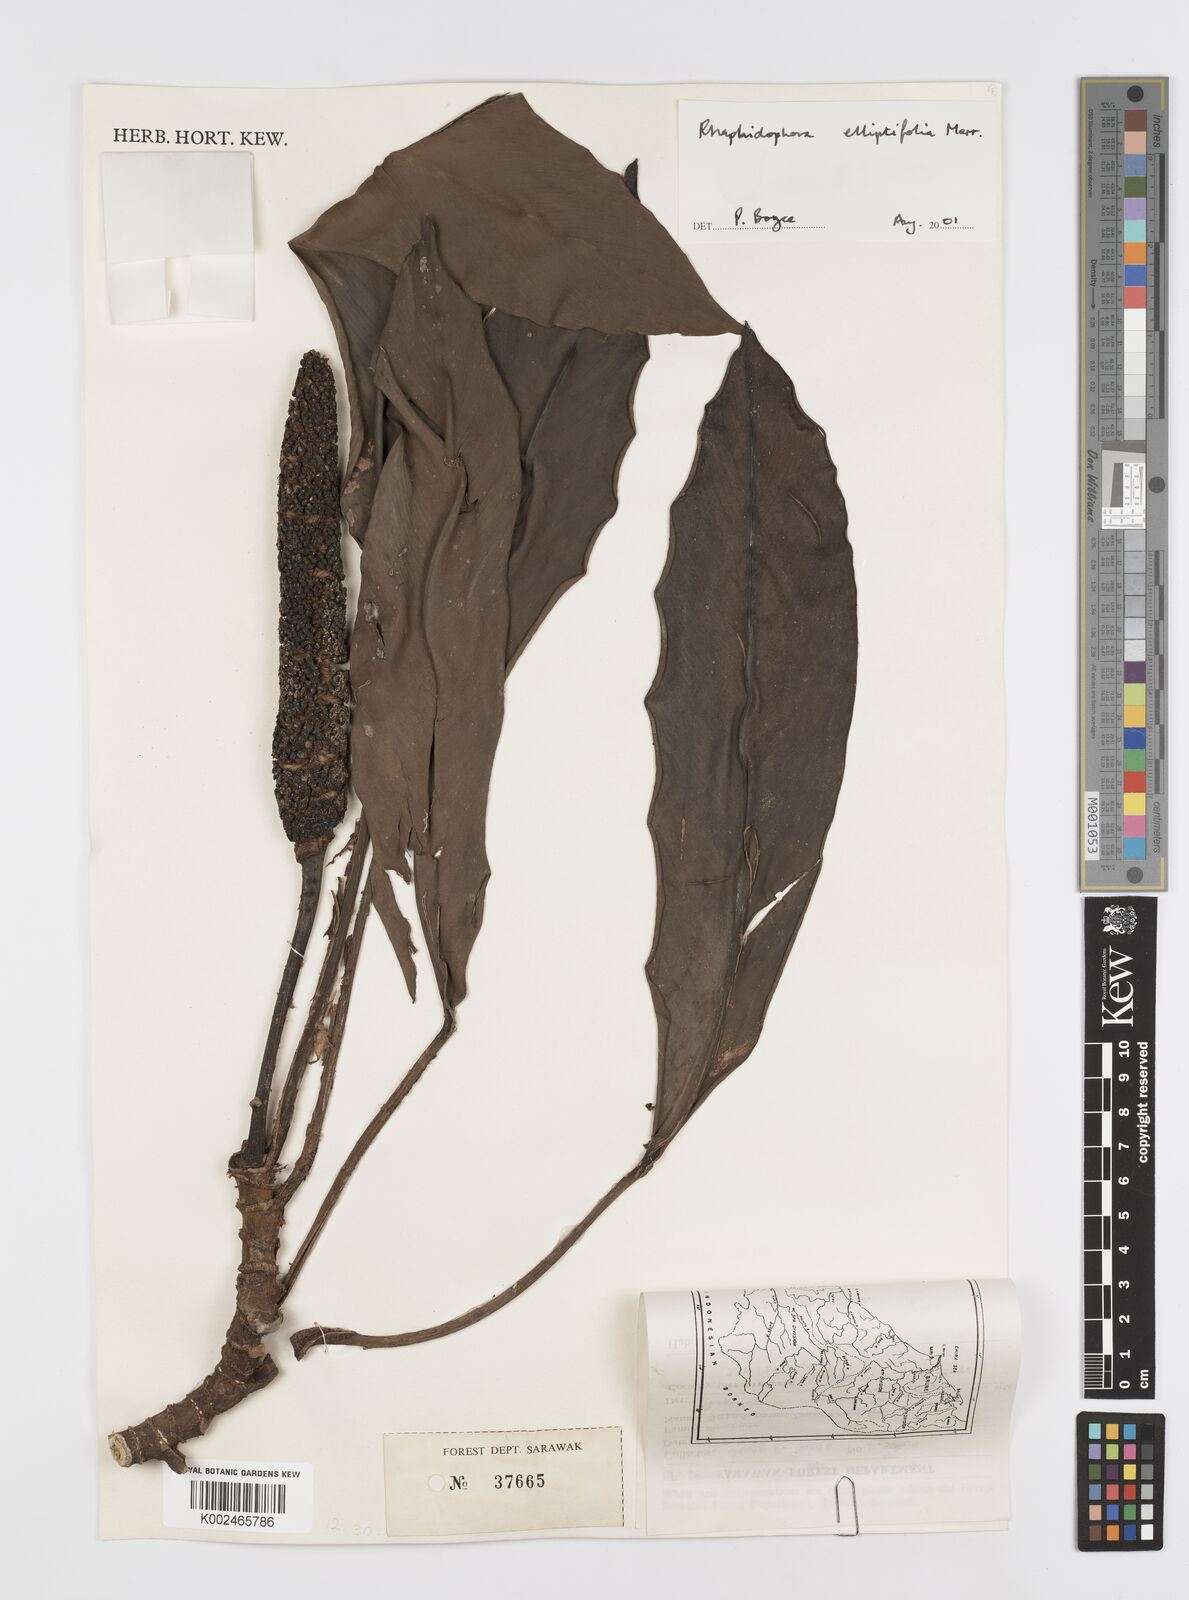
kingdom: Plantae
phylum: Tracheophyta
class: Liliopsida
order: Alismatales
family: Araceae
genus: Rhaphidophora
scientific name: Rhaphidophora elliptifolia
